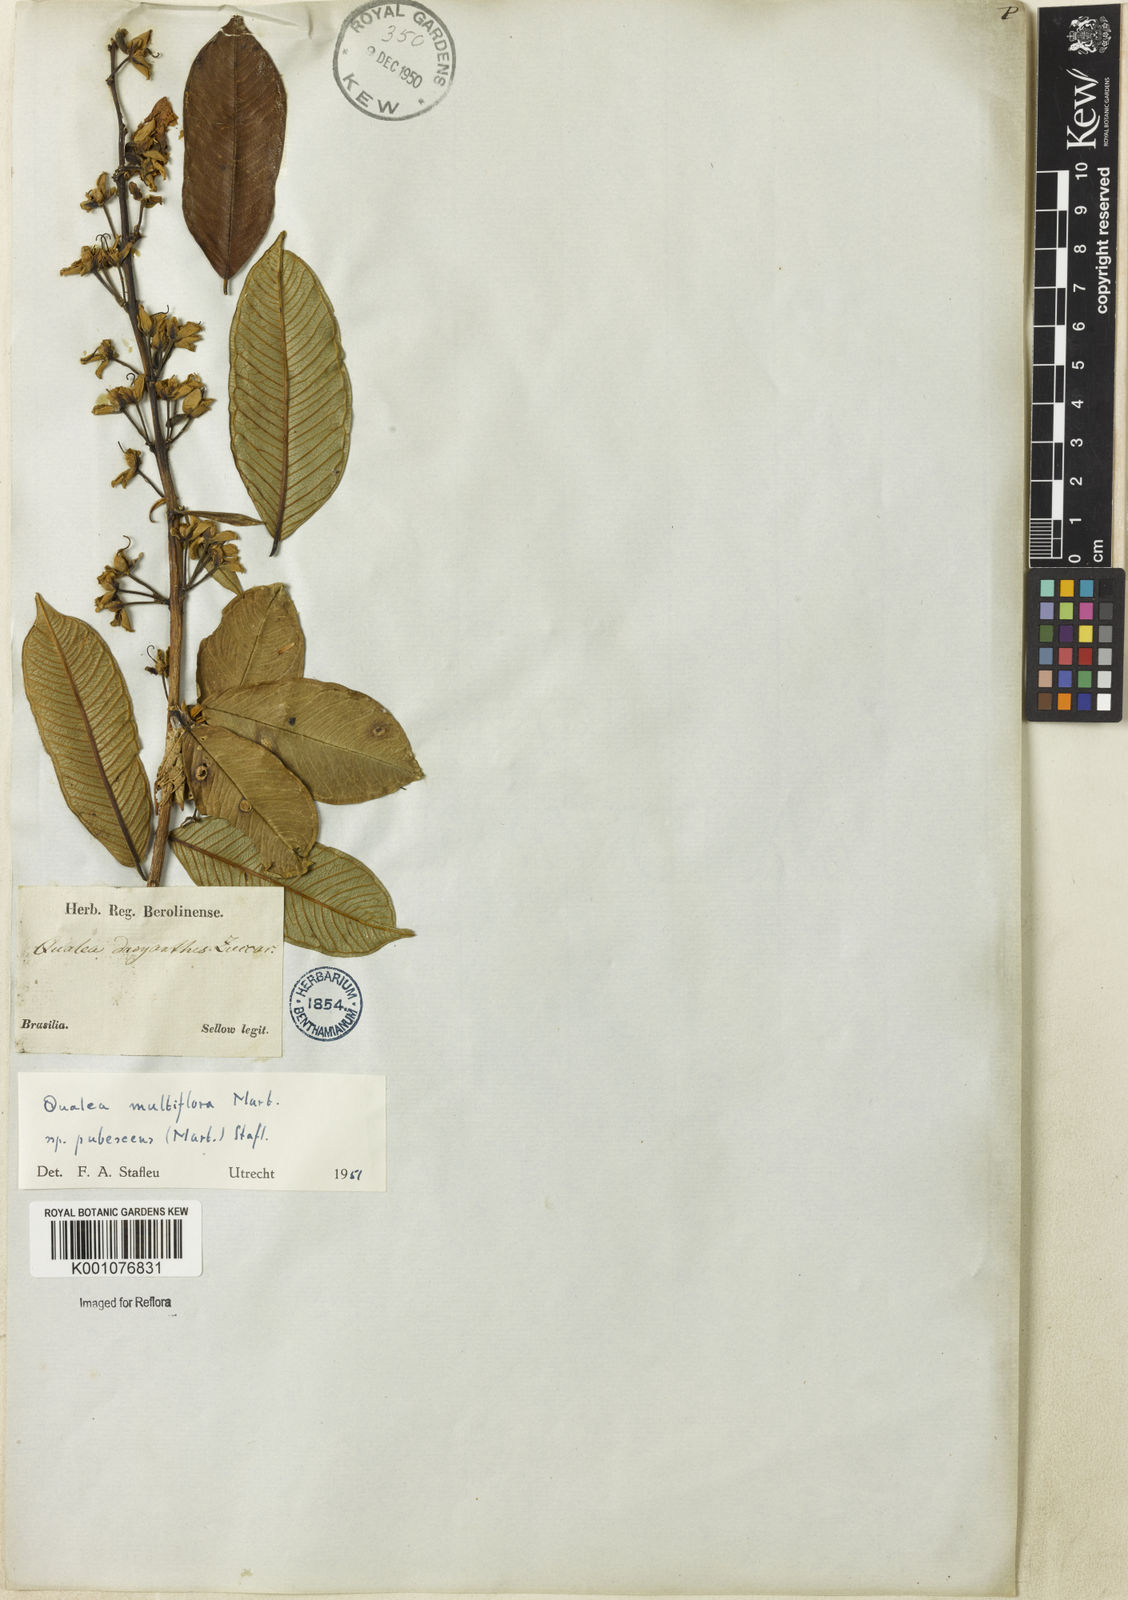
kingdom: Plantae
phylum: Tracheophyta
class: Magnoliopsida
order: Myrtales
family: Vochysiaceae
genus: Qualea
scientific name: Qualea multiflora
